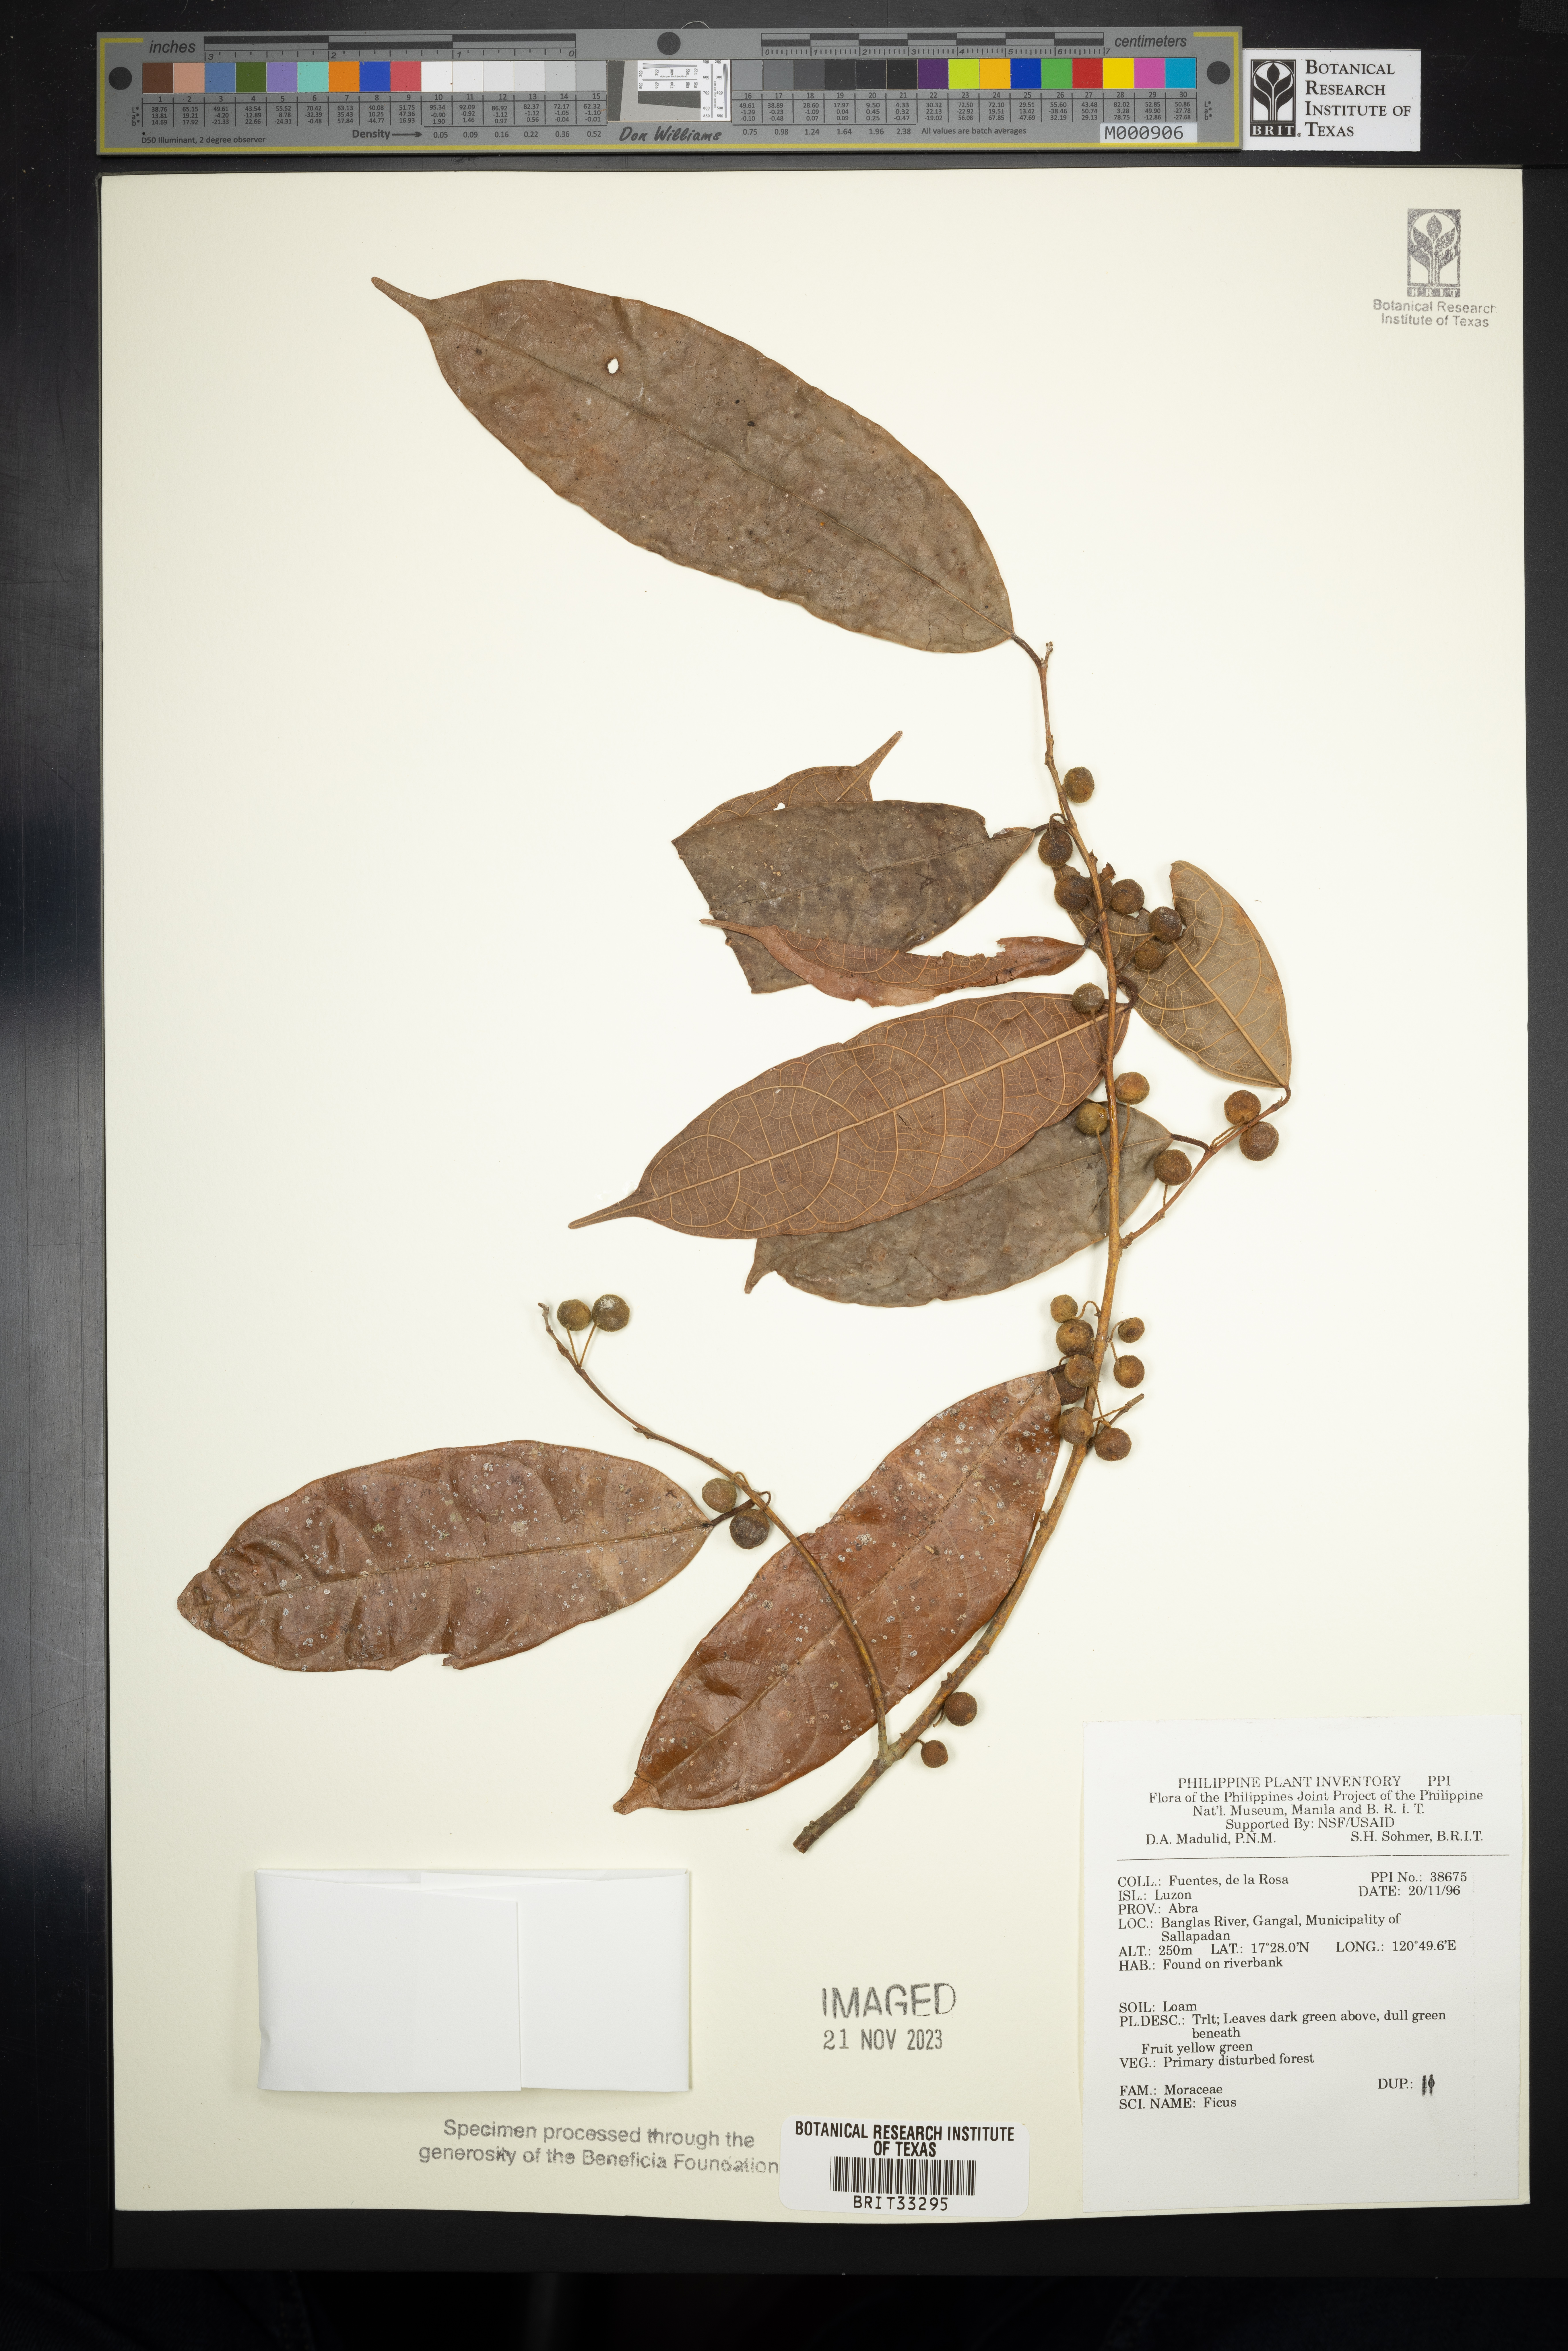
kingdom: Plantae
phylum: Tracheophyta
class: Magnoliopsida
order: Rosales
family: Moraceae
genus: Ficus
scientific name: Ficus
